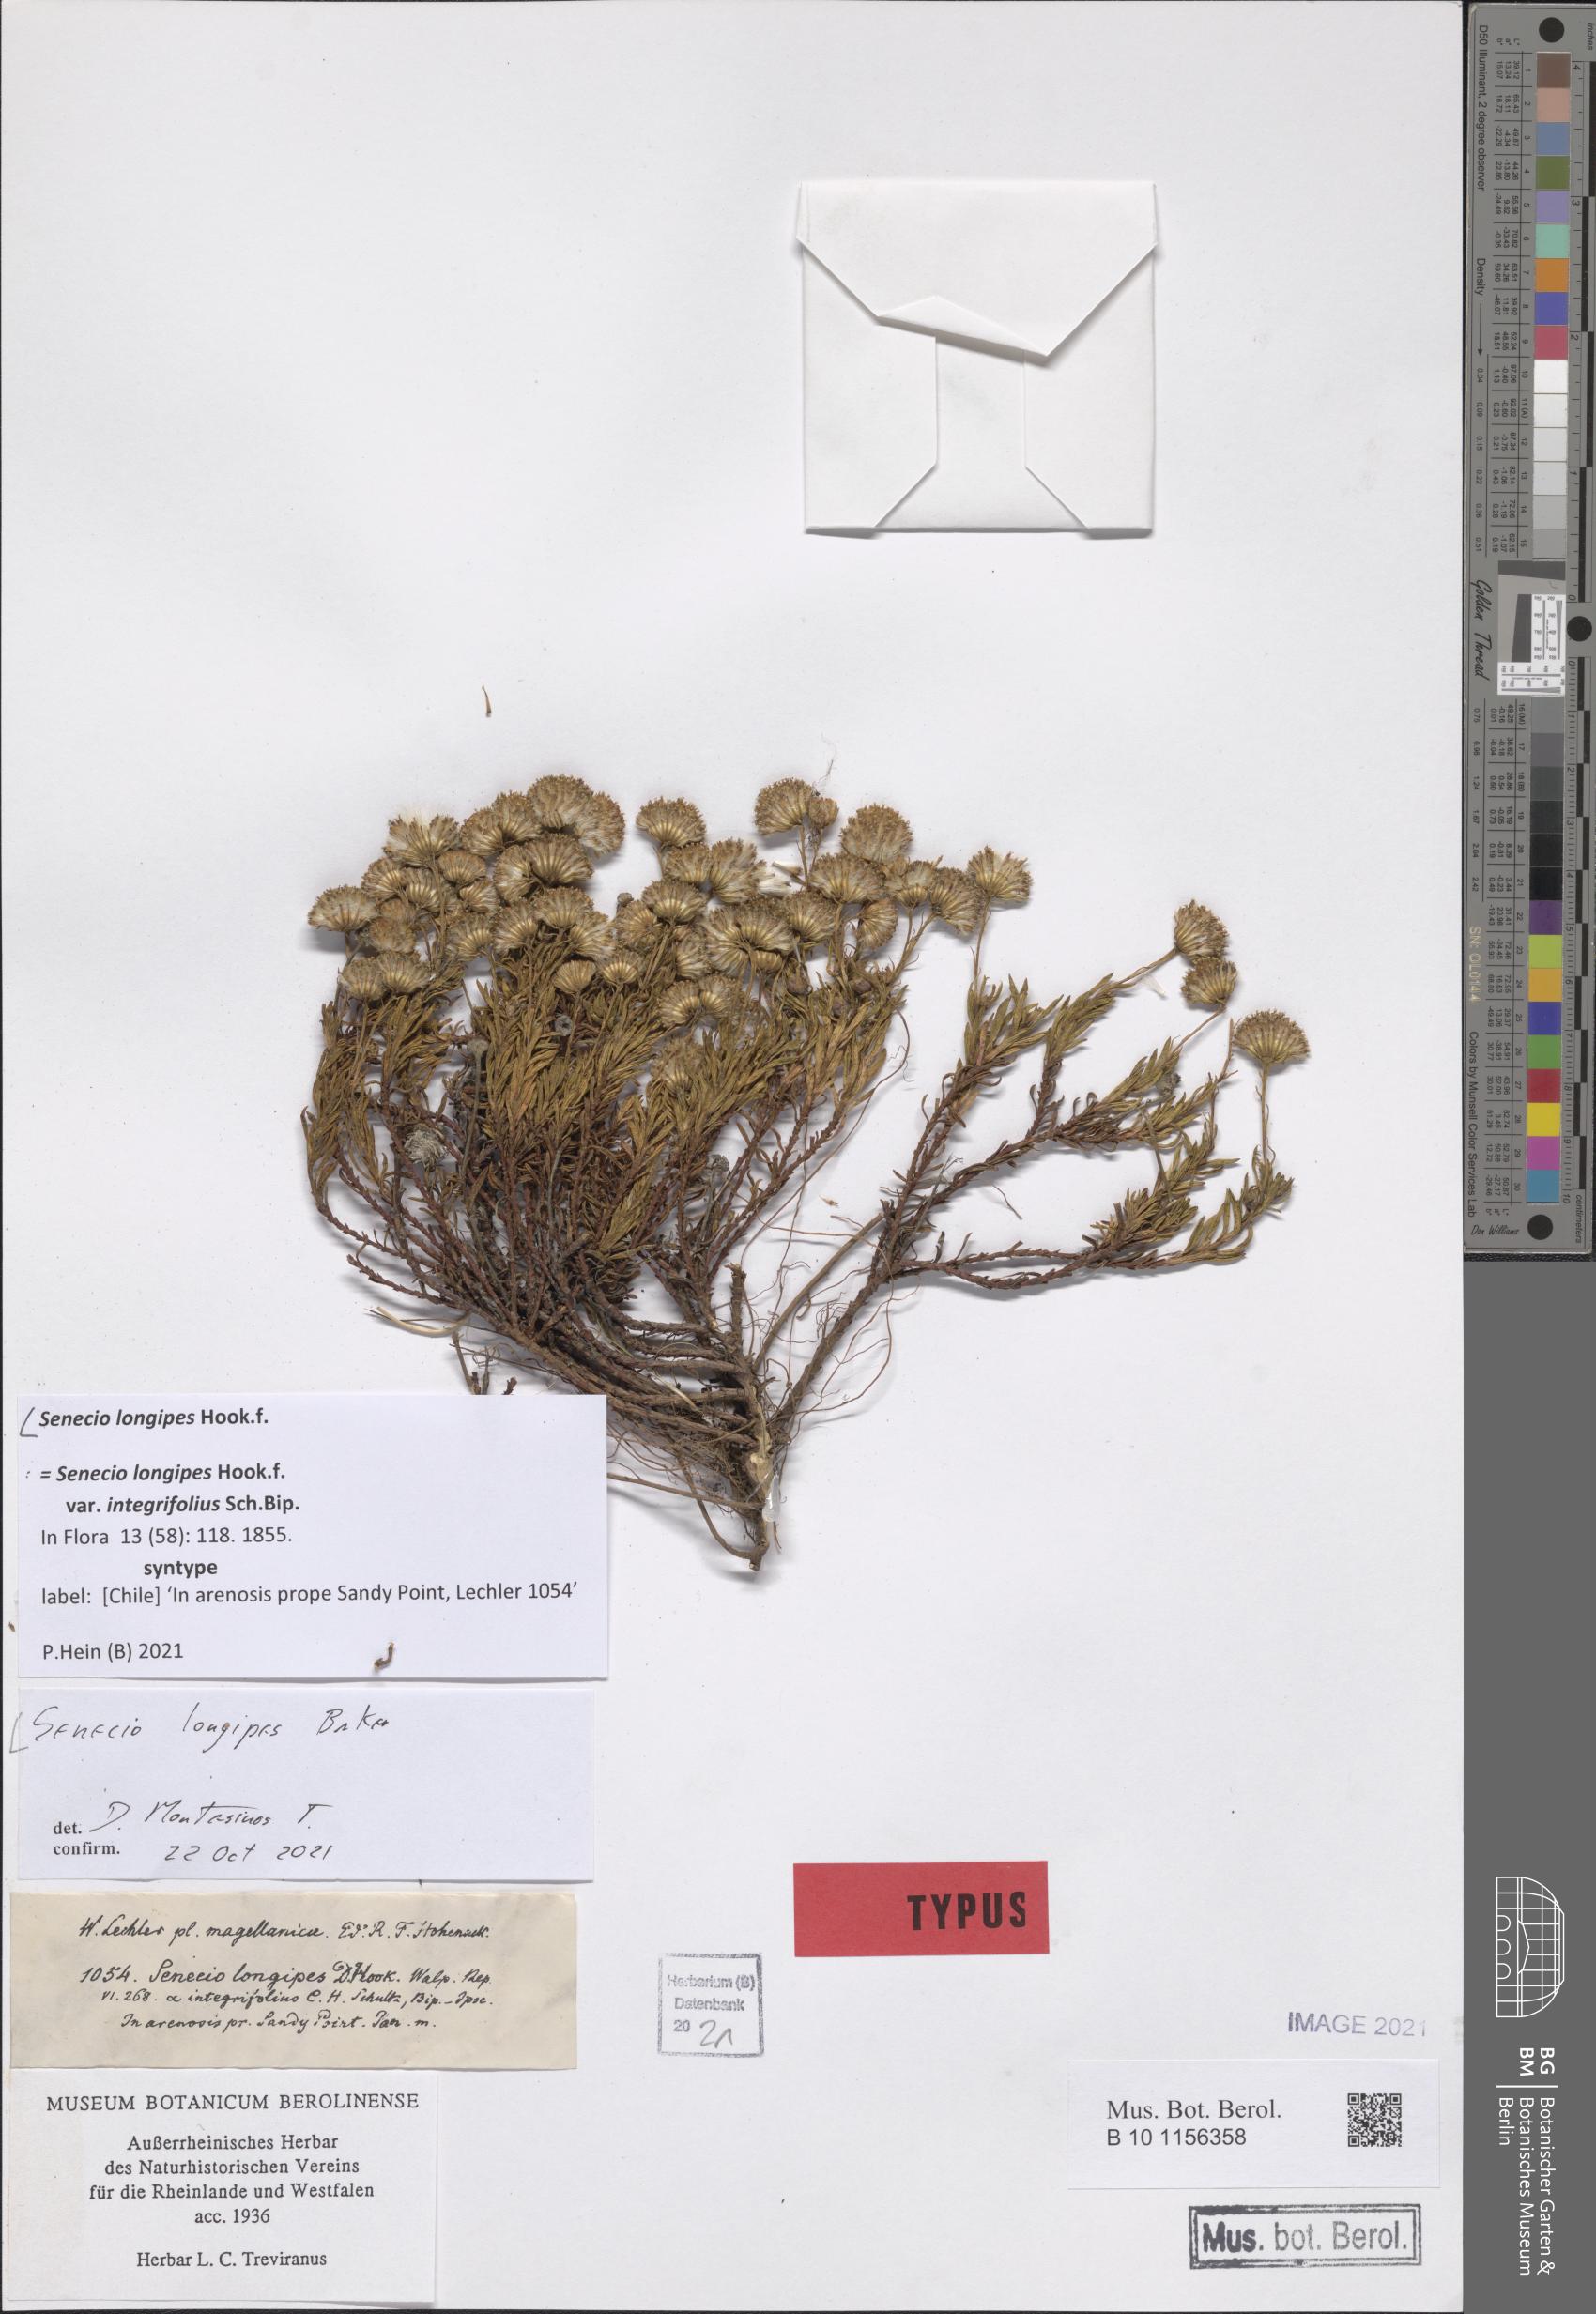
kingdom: Plantae
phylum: Tracheophyta
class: Magnoliopsida
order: Asterales
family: Asteraceae
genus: Senecio
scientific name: Senecio tricuspidatus
